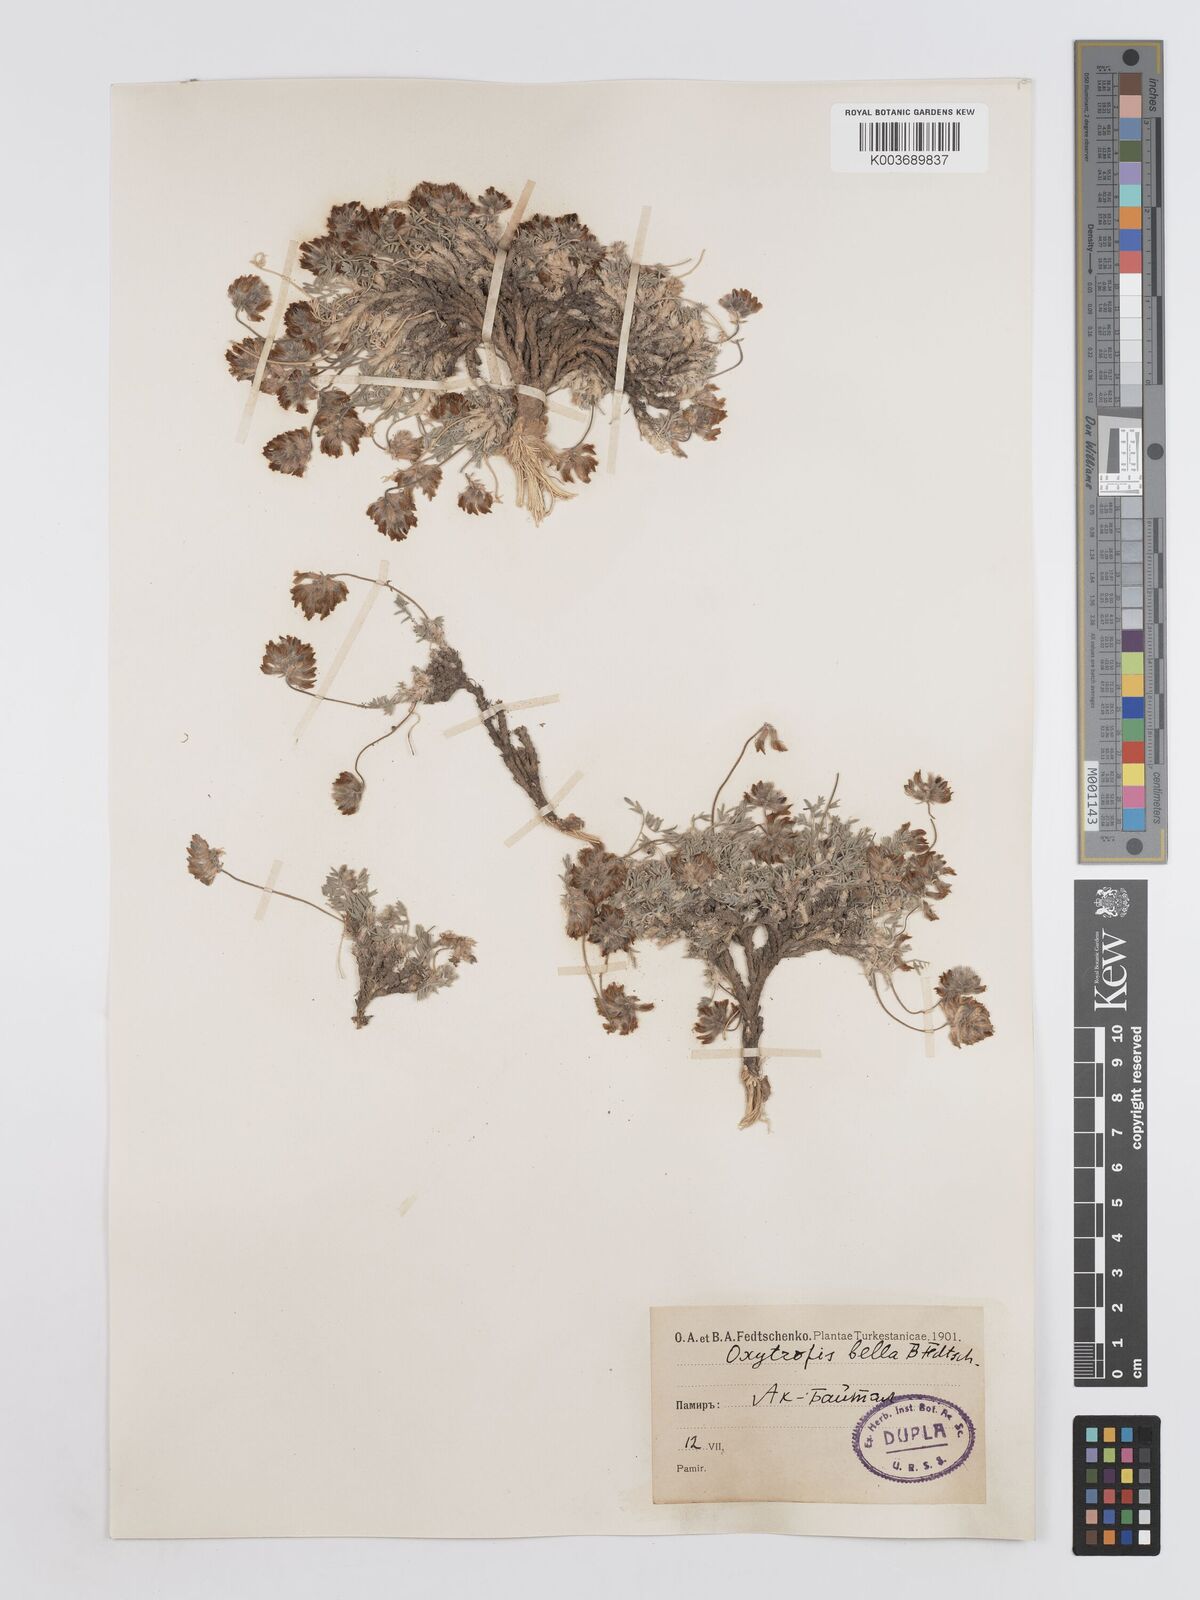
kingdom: Plantae
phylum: Tracheophyta
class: Magnoliopsida
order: Fabales
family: Fabaceae
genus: Oxytropis
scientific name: Oxytropis bella
